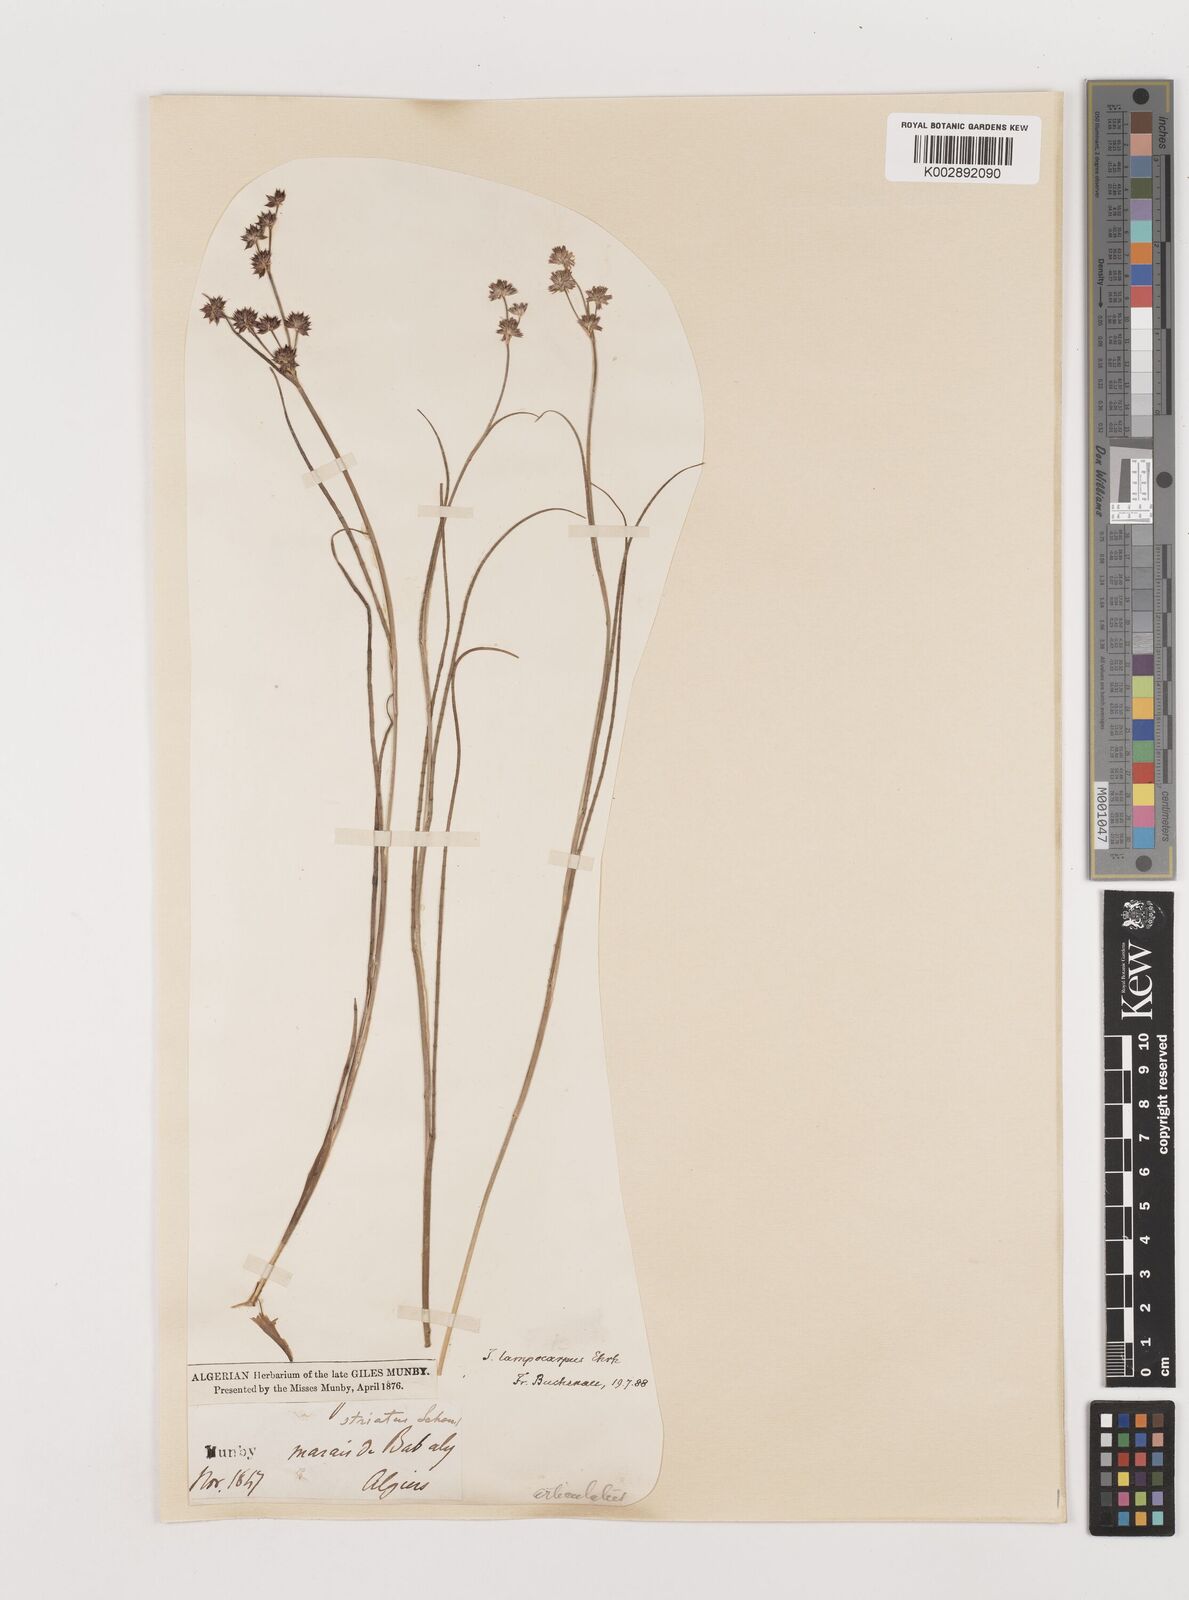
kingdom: Plantae
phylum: Tracheophyta
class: Liliopsida
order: Poales
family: Juncaceae
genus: Juncus
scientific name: Juncus articulatus
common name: Jointed rush
